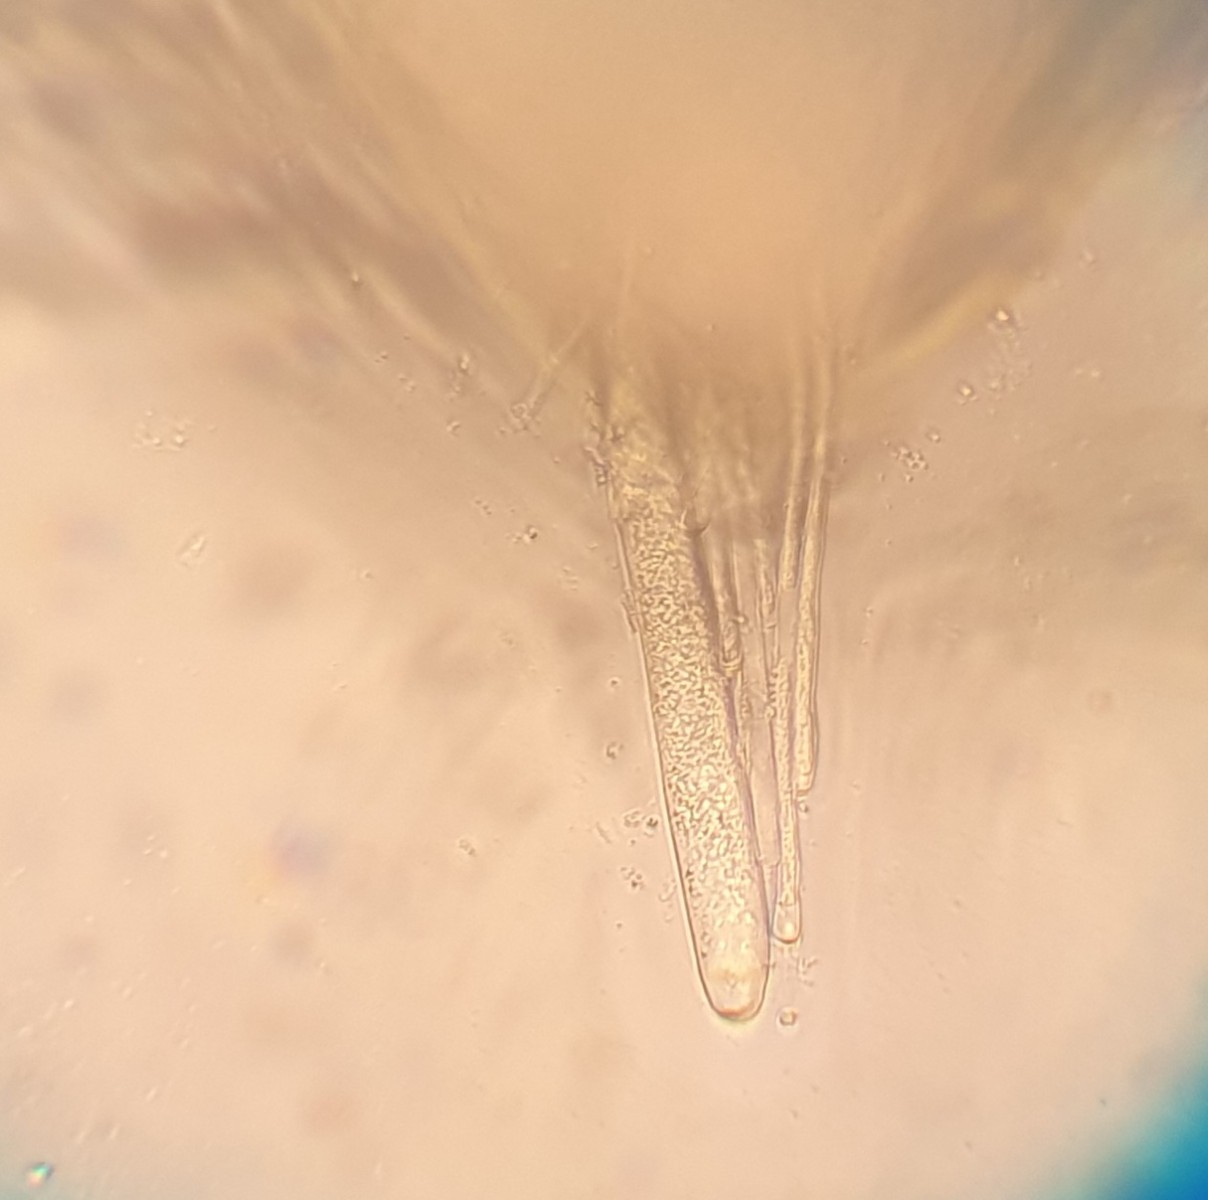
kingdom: Fungi
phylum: Ascomycota
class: Pezizomycetes
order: Pezizales
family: Helvellaceae
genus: Dissingia
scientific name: Dissingia leucomelaena
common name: sorthvid foldhat
